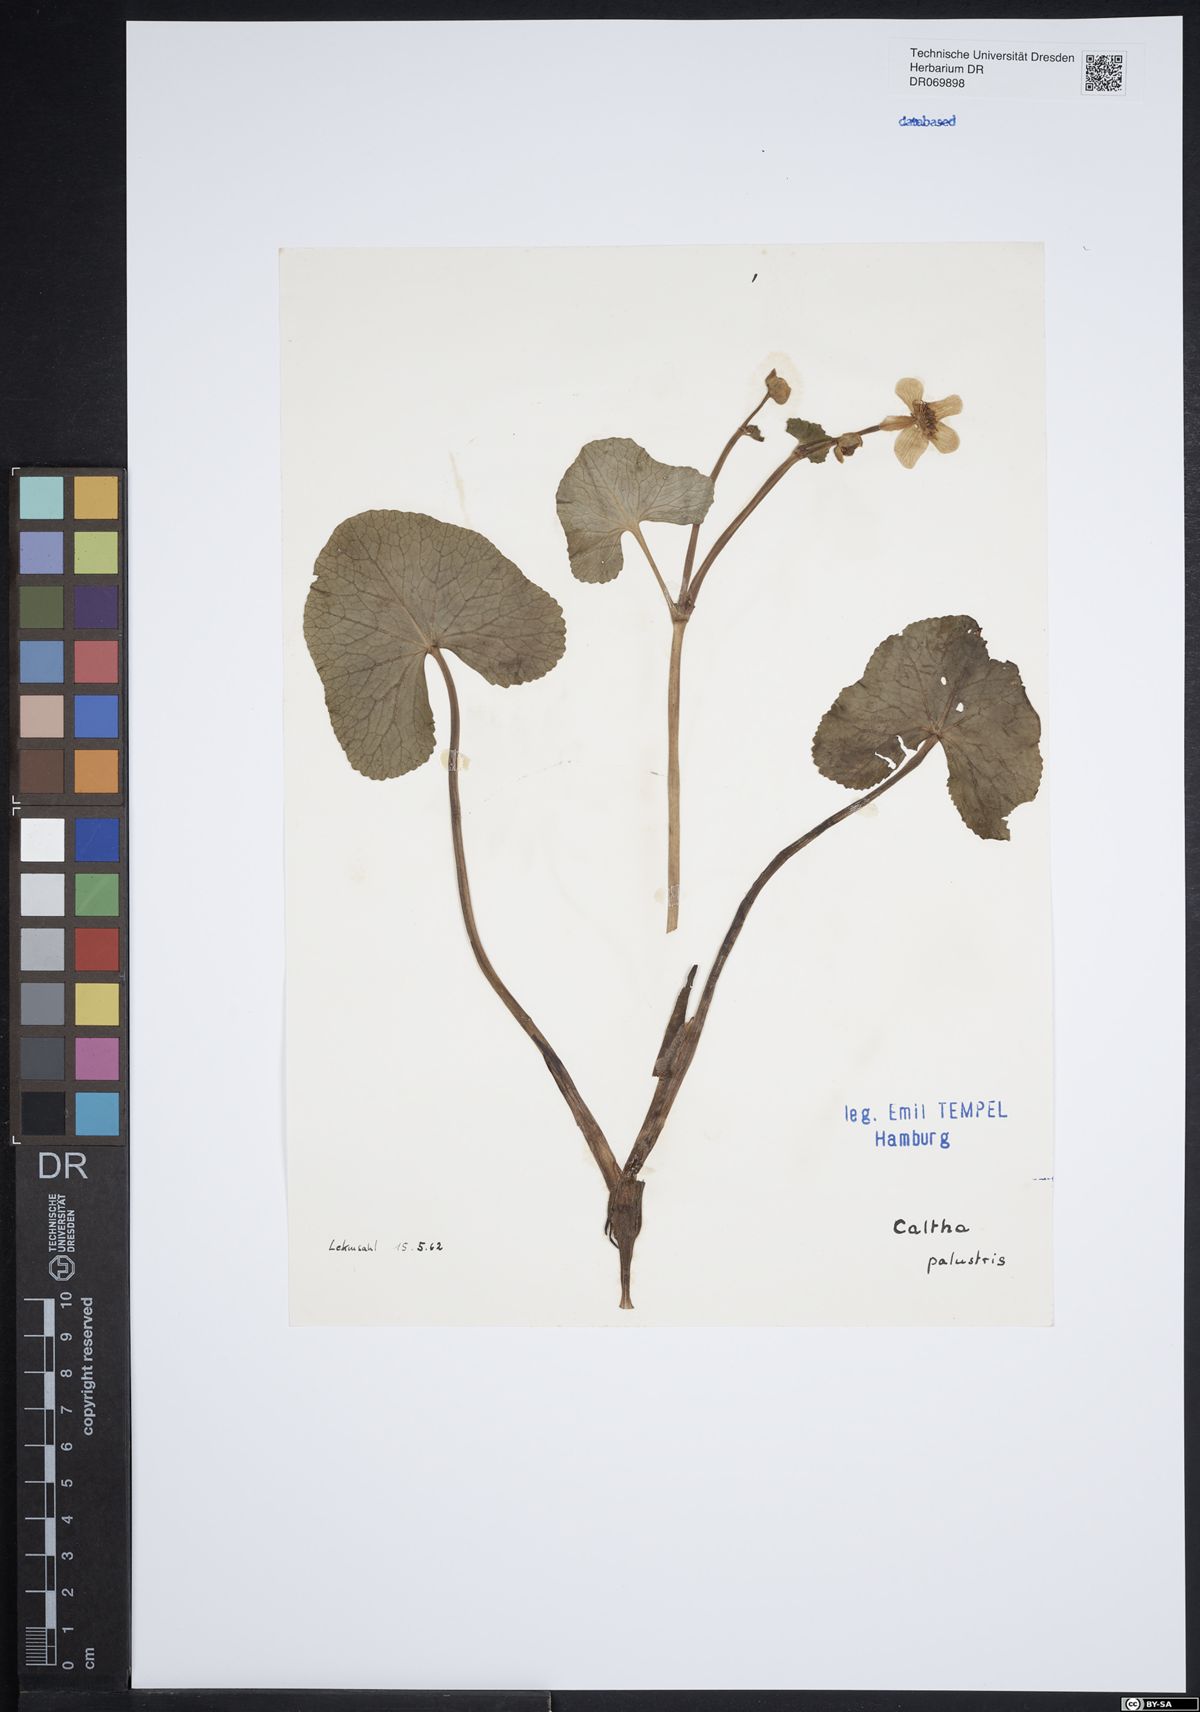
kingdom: Plantae
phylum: Tracheophyta
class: Magnoliopsida
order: Ranunculales
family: Ranunculaceae
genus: Caltha
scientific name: Caltha palustris
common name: Marsh marigold
